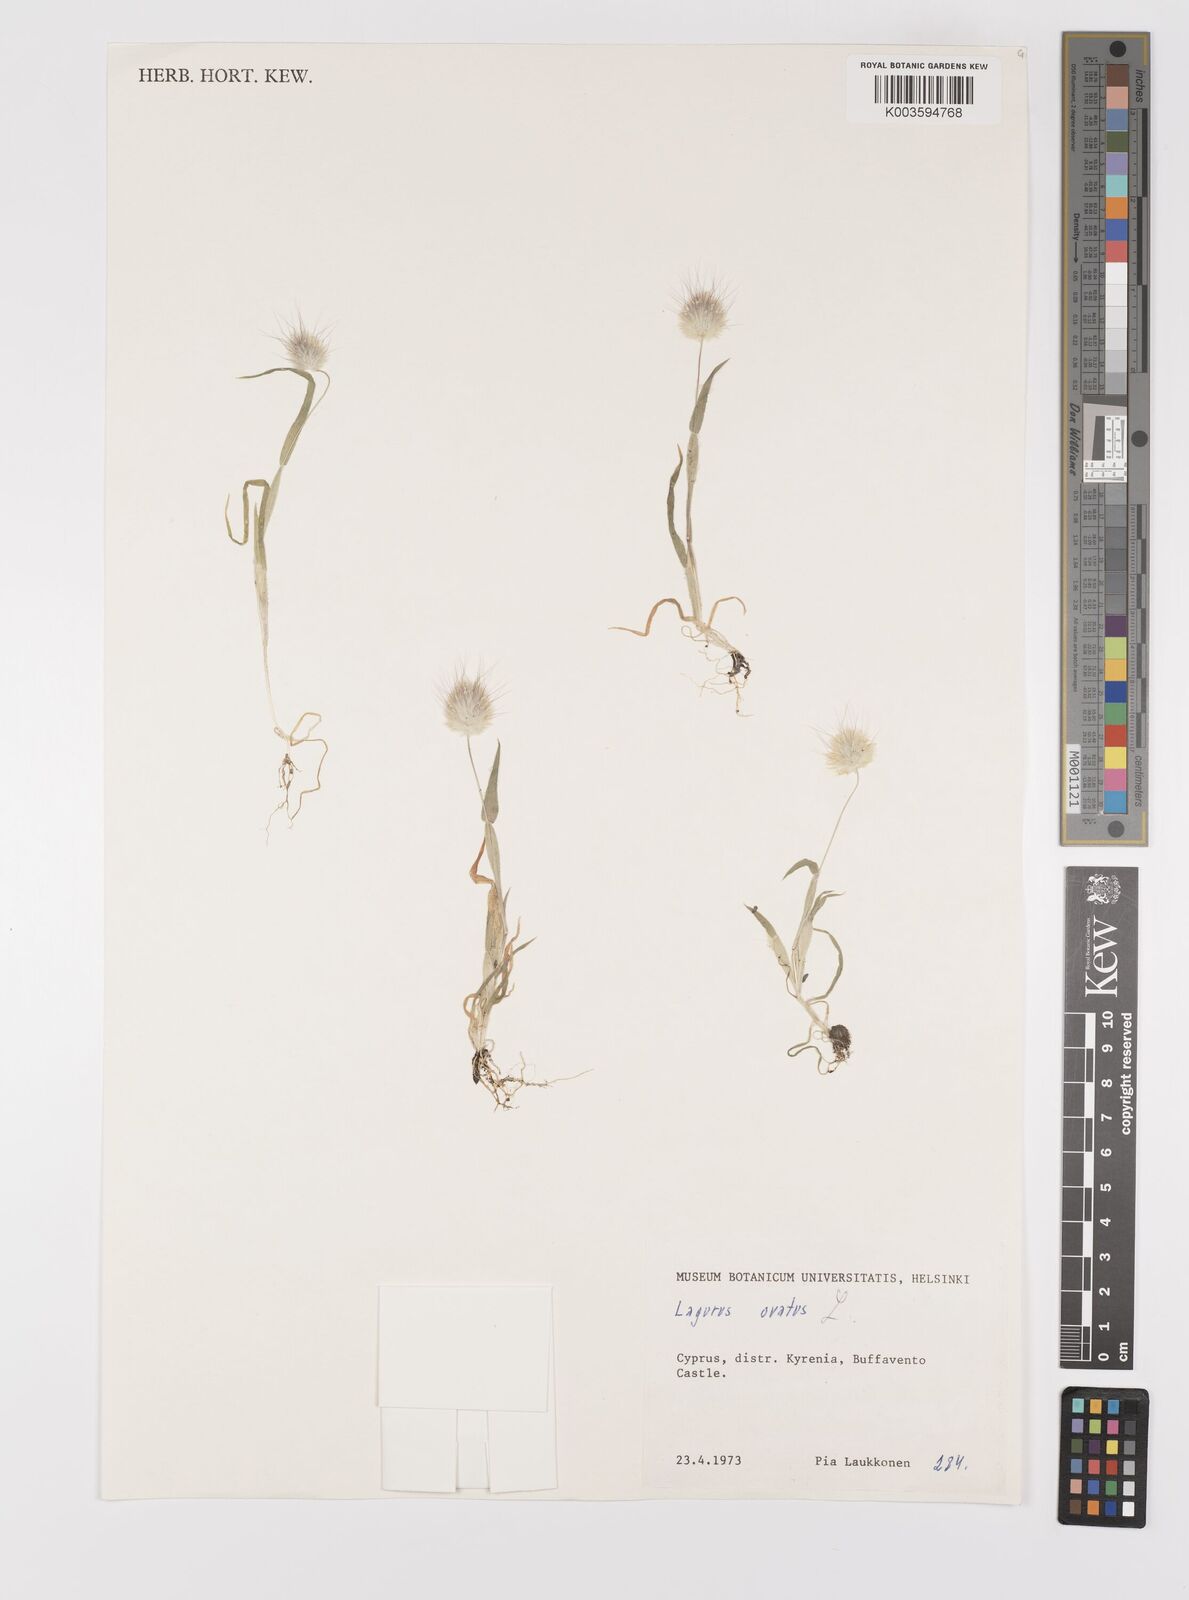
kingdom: Plantae
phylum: Tracheophyta
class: Liliopsida
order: Poales
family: Poaceae
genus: Lagurus
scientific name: Lagurus ovatus
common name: Hare's-tail
